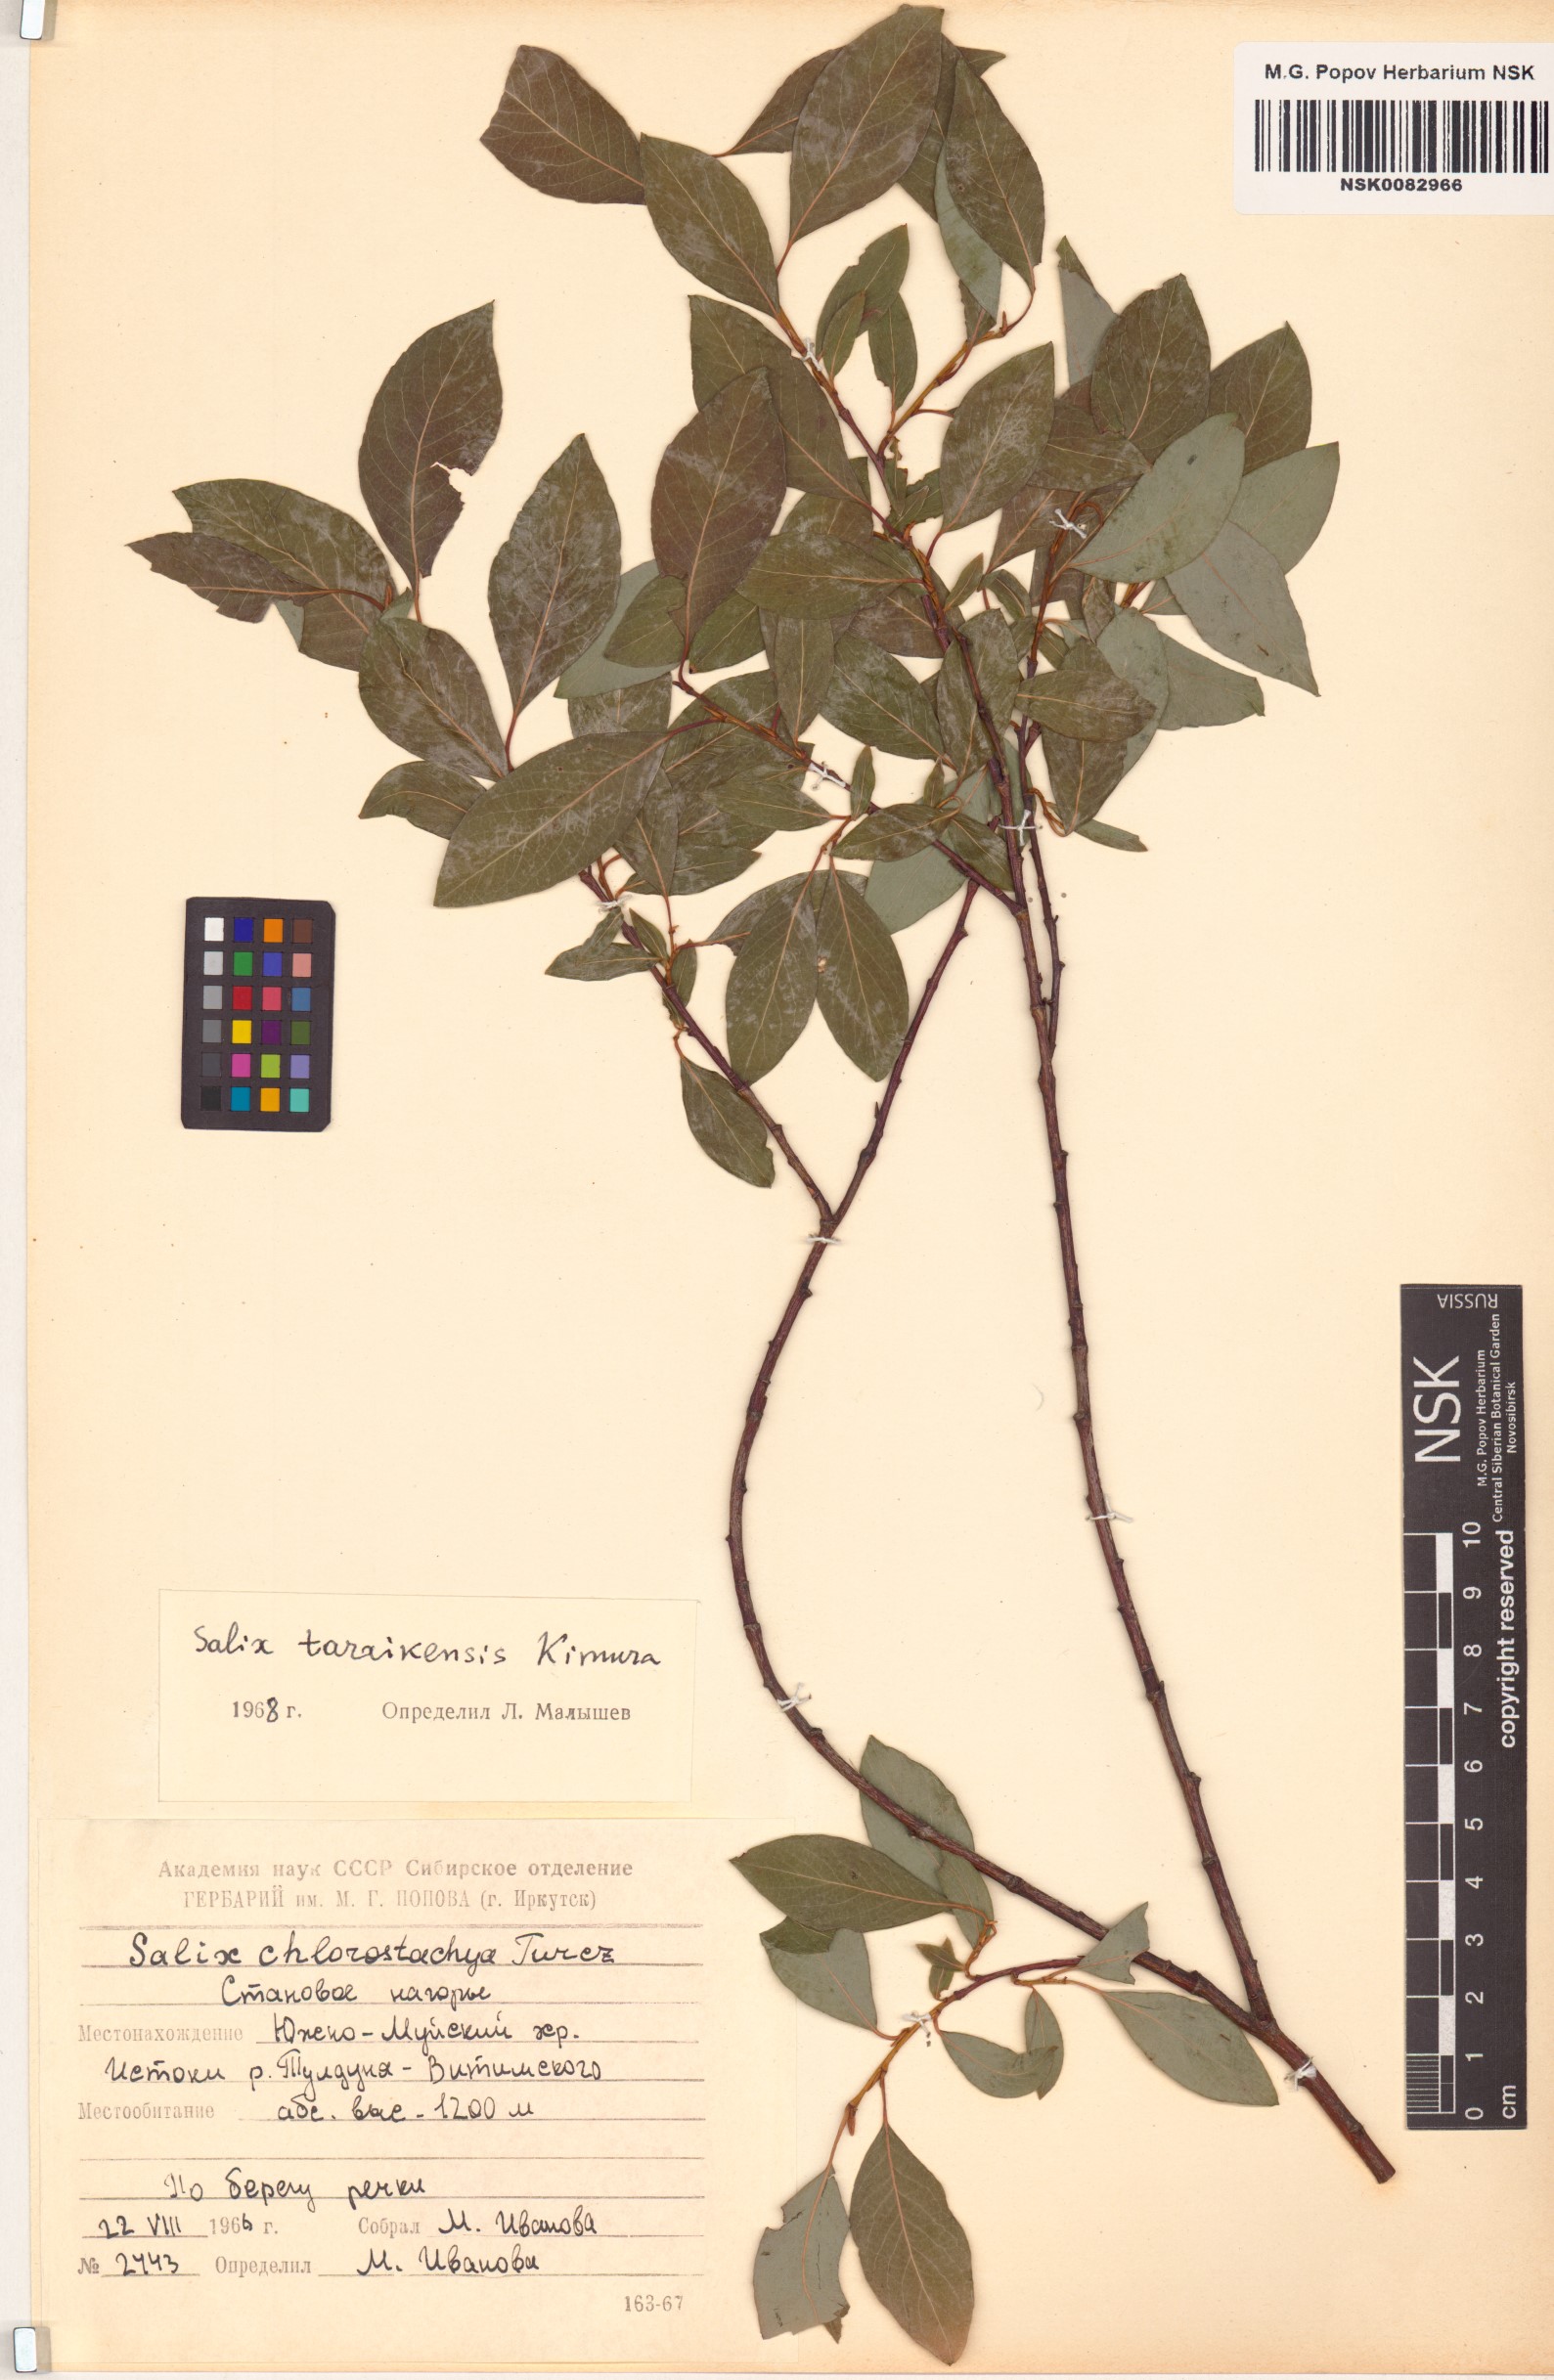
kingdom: Plantae
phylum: Tracheophyta
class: Magnoliopsida
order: Malpighiales
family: Salicaceae
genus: Salix
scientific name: Salix taraikensis
